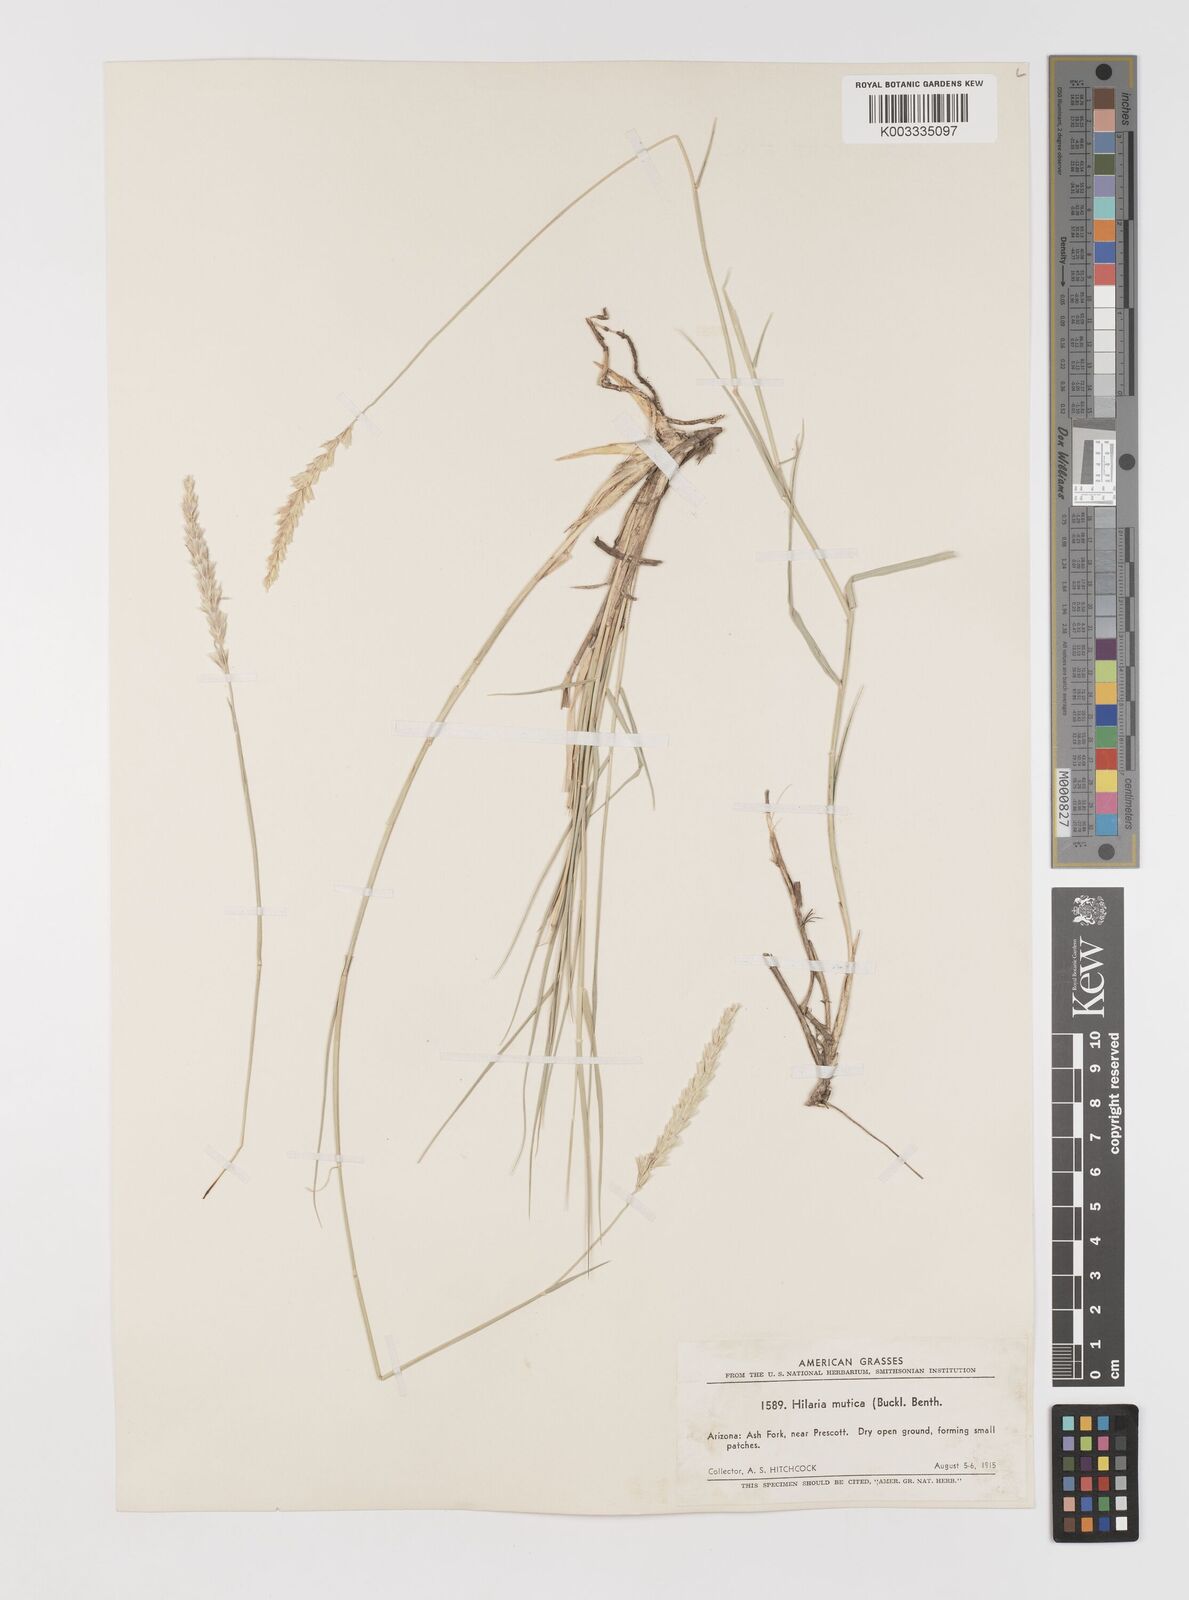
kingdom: Plantae
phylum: Tracheophyta
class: Liliopsida
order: Poales
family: Poaceae
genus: Hilaria
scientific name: Hilaria mutica
